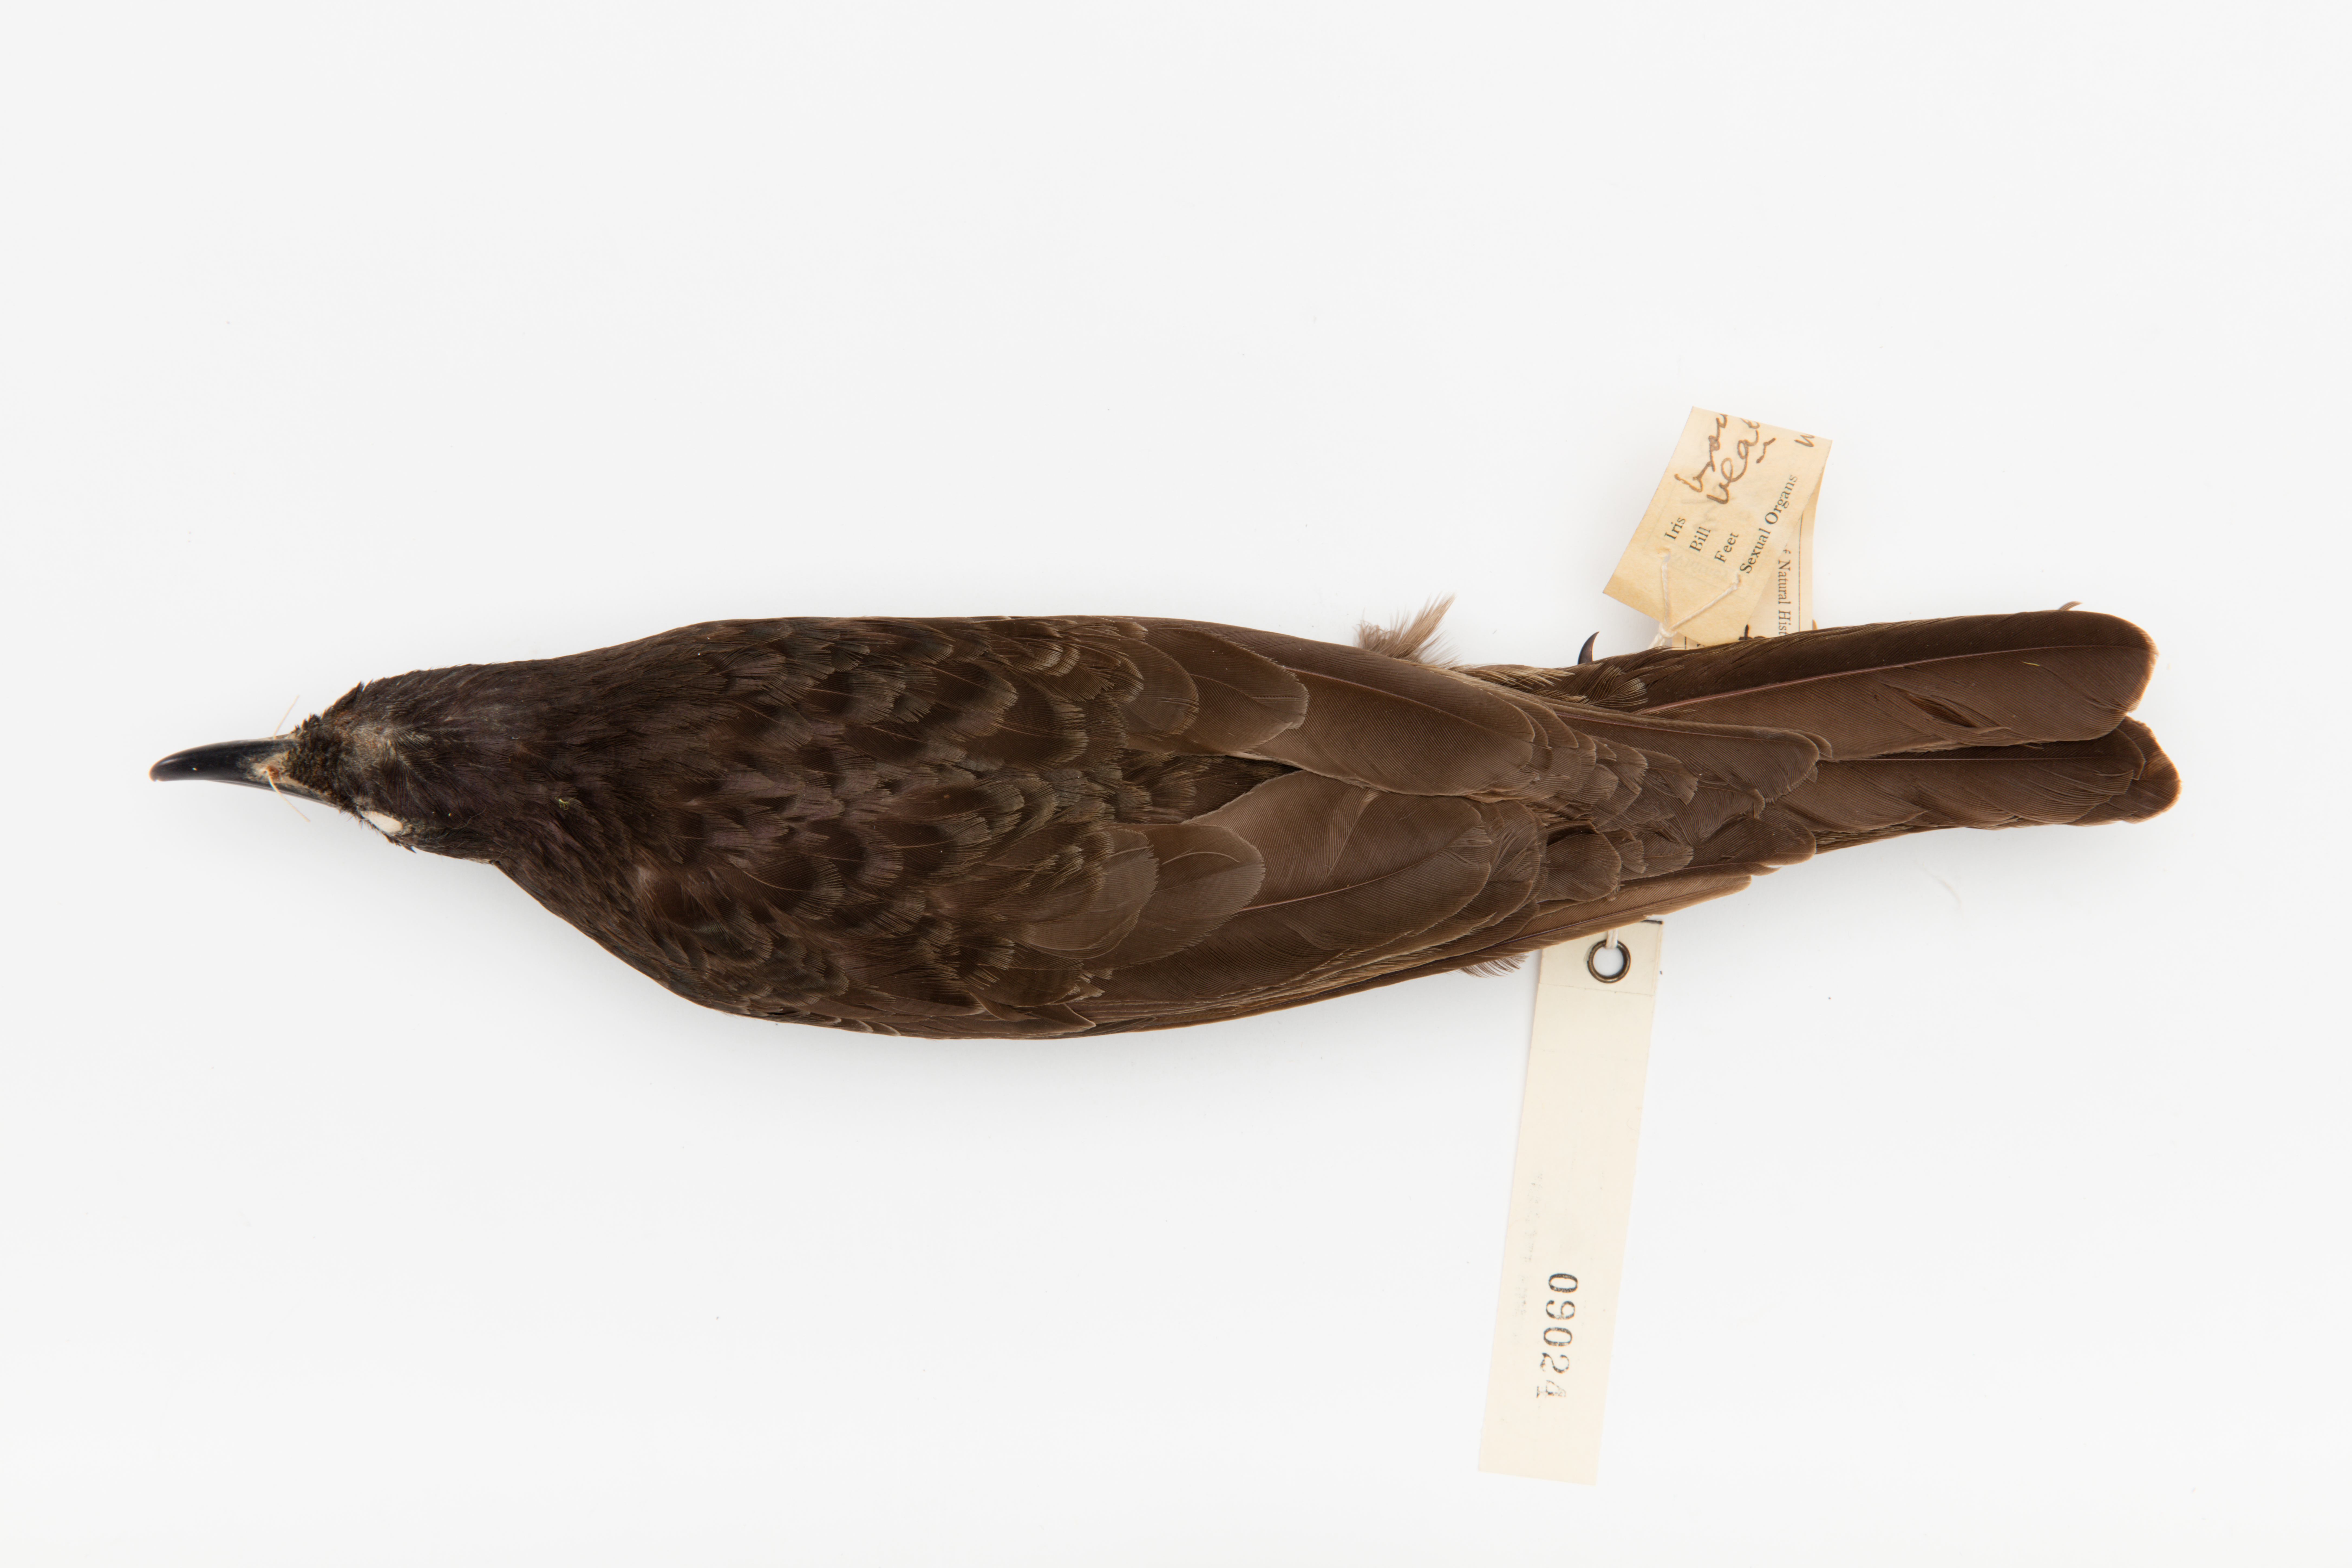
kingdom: Animalia
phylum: Chordata
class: Aves
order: Passeriformes
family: Sturnidae
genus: Aplonis
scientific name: Aplonis atrifusca
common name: Samoan starling
